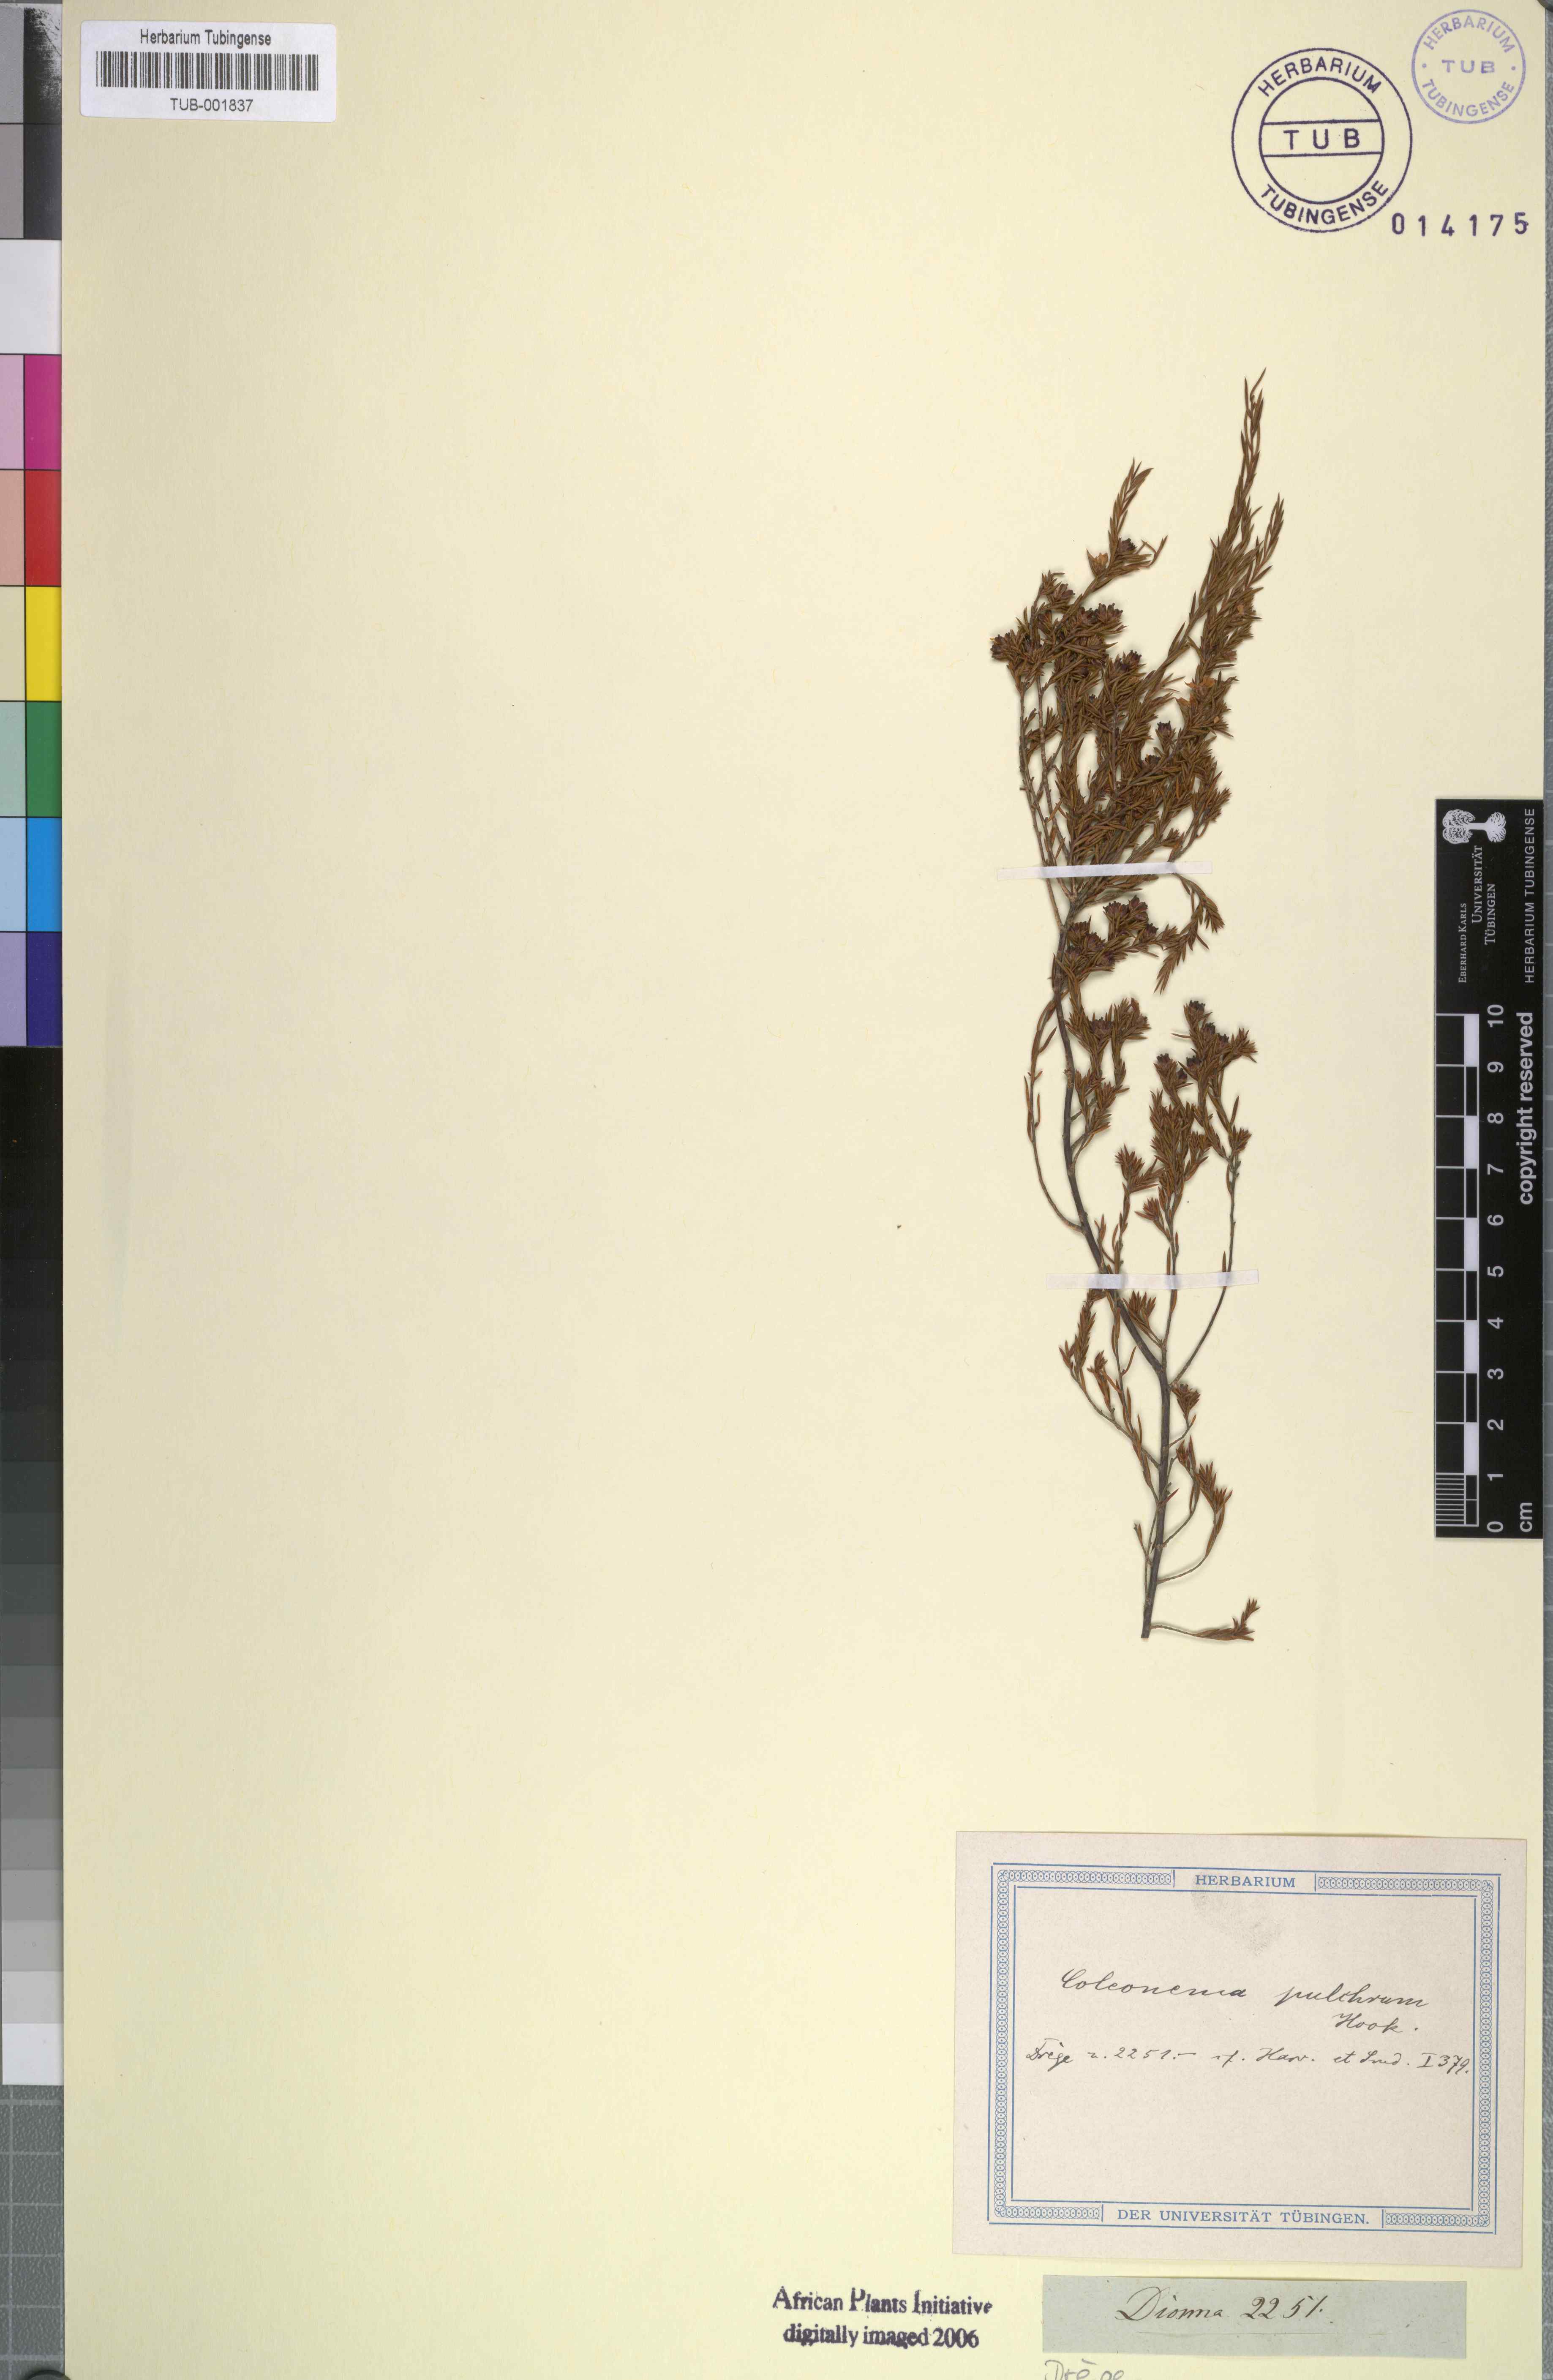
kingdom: Plantae
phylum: Tracheophyta
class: Magnoliopsida
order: Sapindales
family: Rutaceae
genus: Coleonema
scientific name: Coleonema pulchrum
